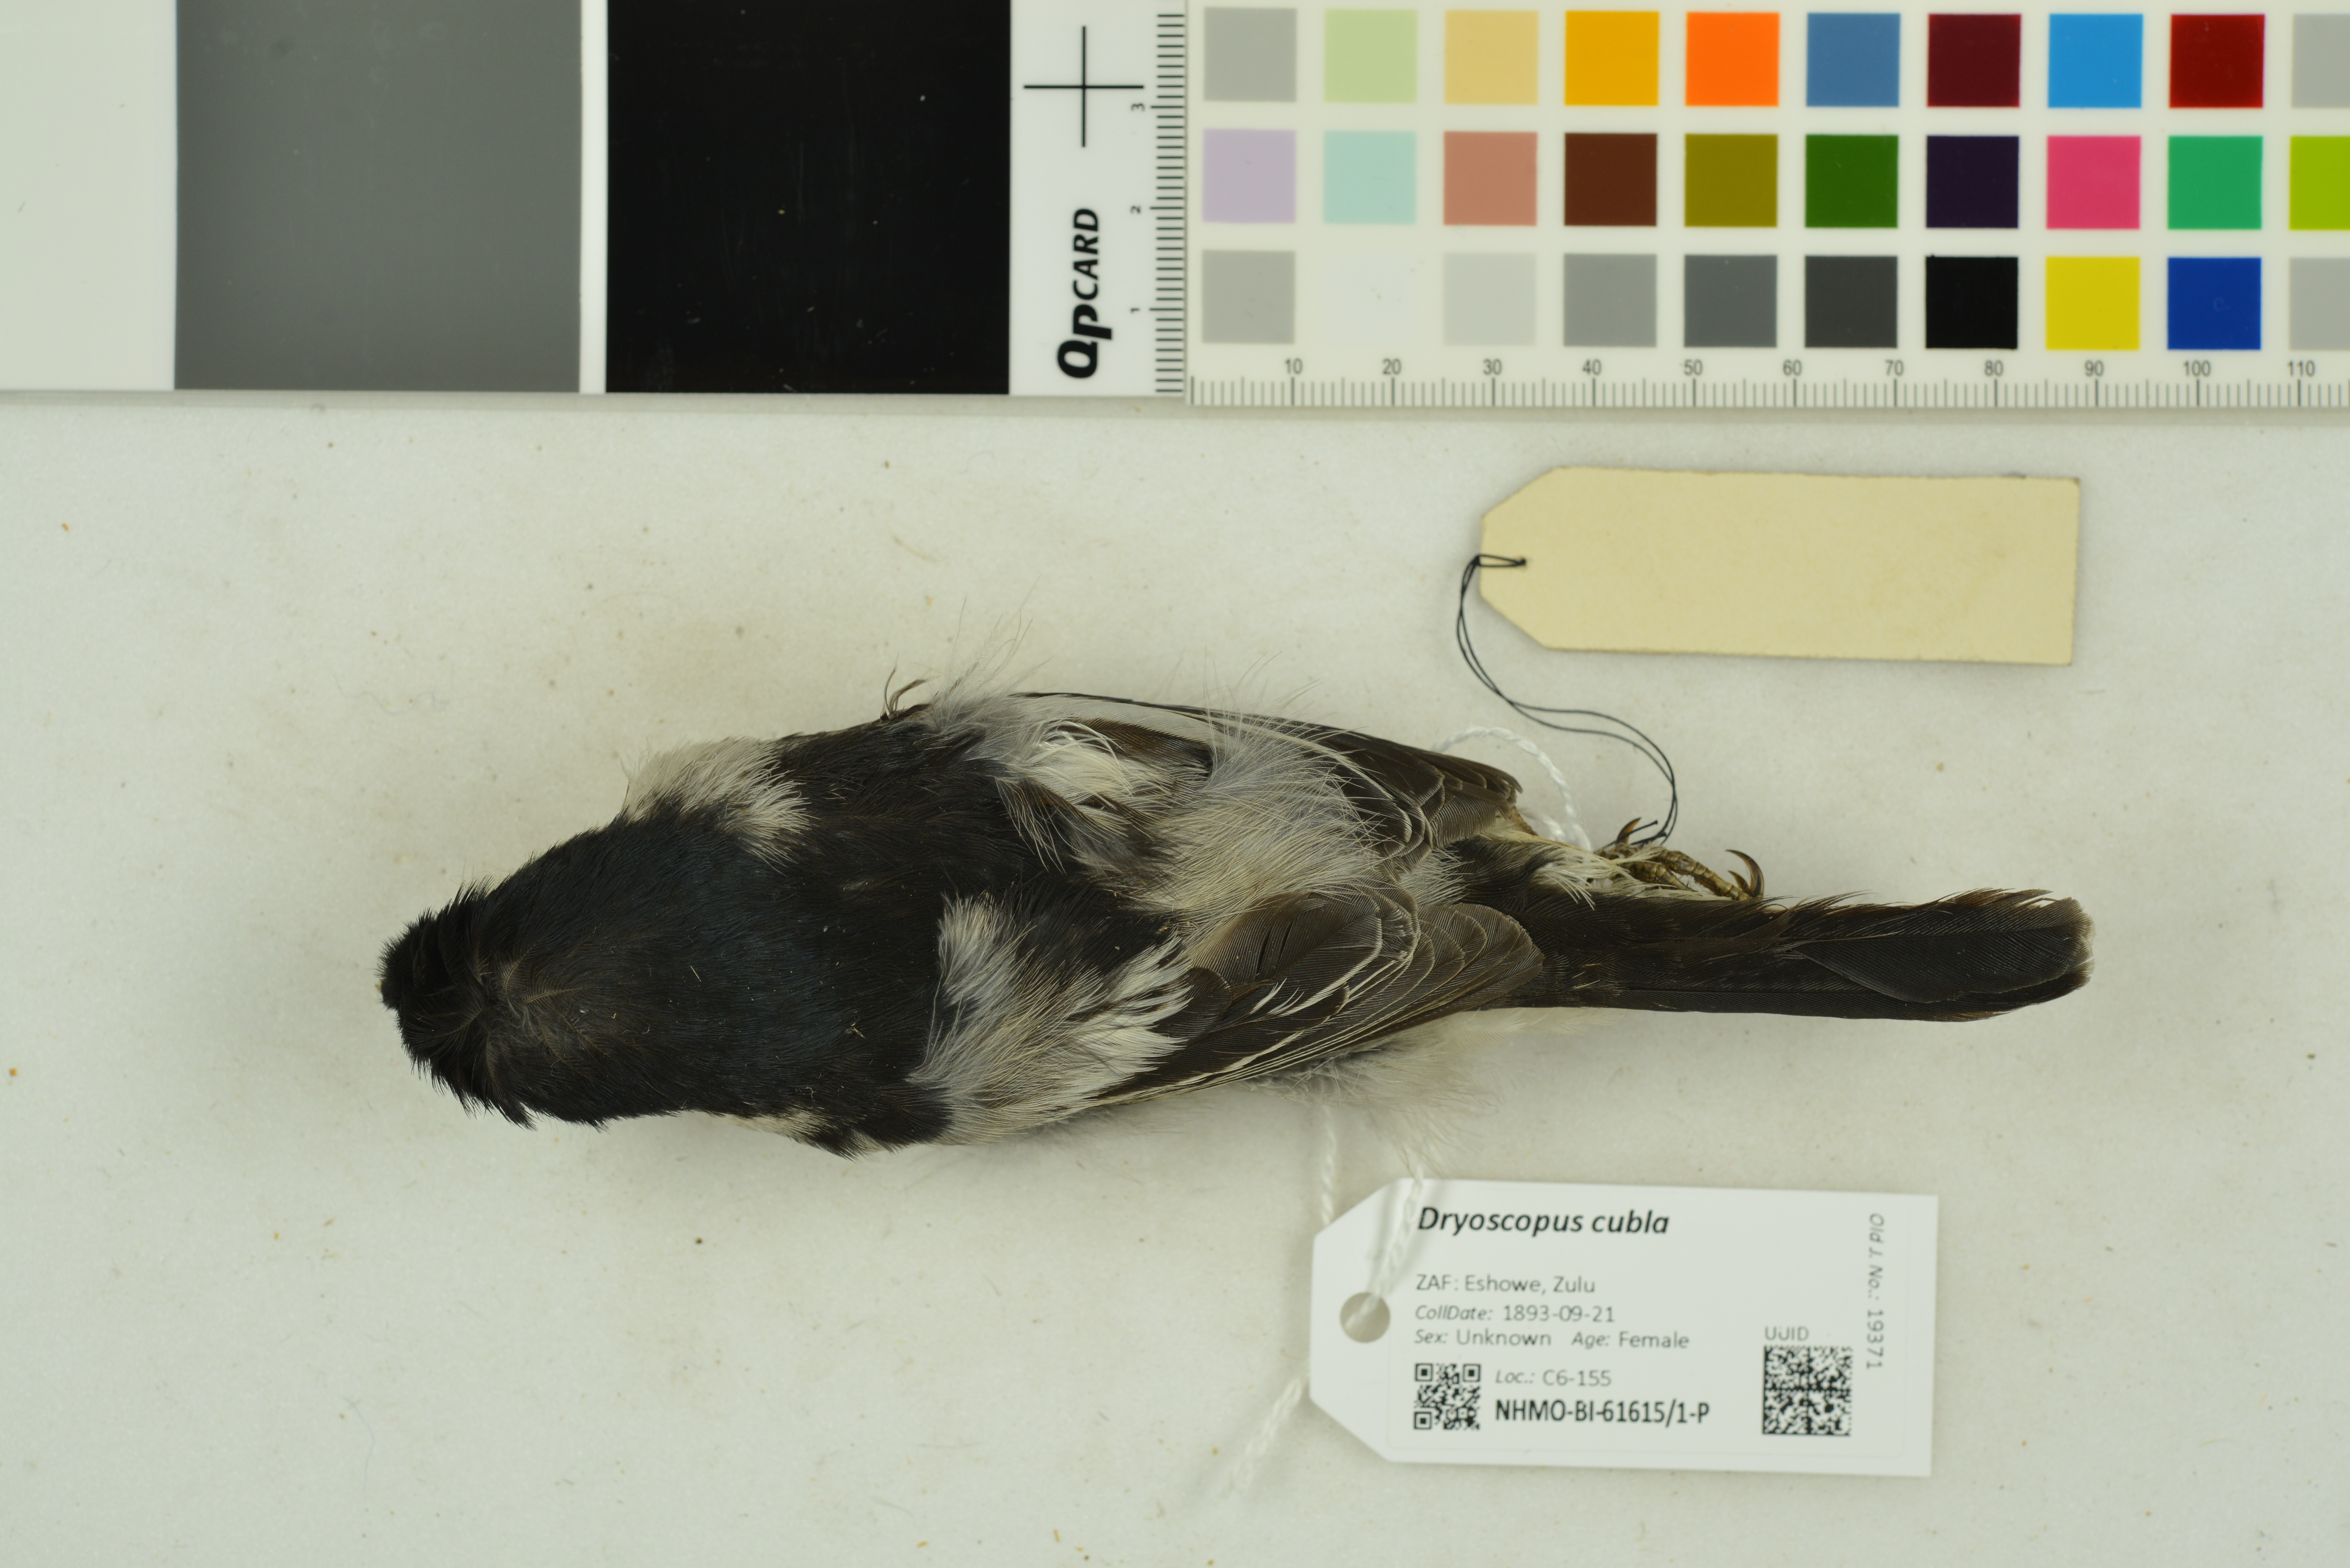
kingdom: Animalia
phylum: Chordata
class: Aves
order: Passeriformes
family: Malaconotidae
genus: Dryoscopus
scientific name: Dryoscopus cubla
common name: Black-backed puffback
